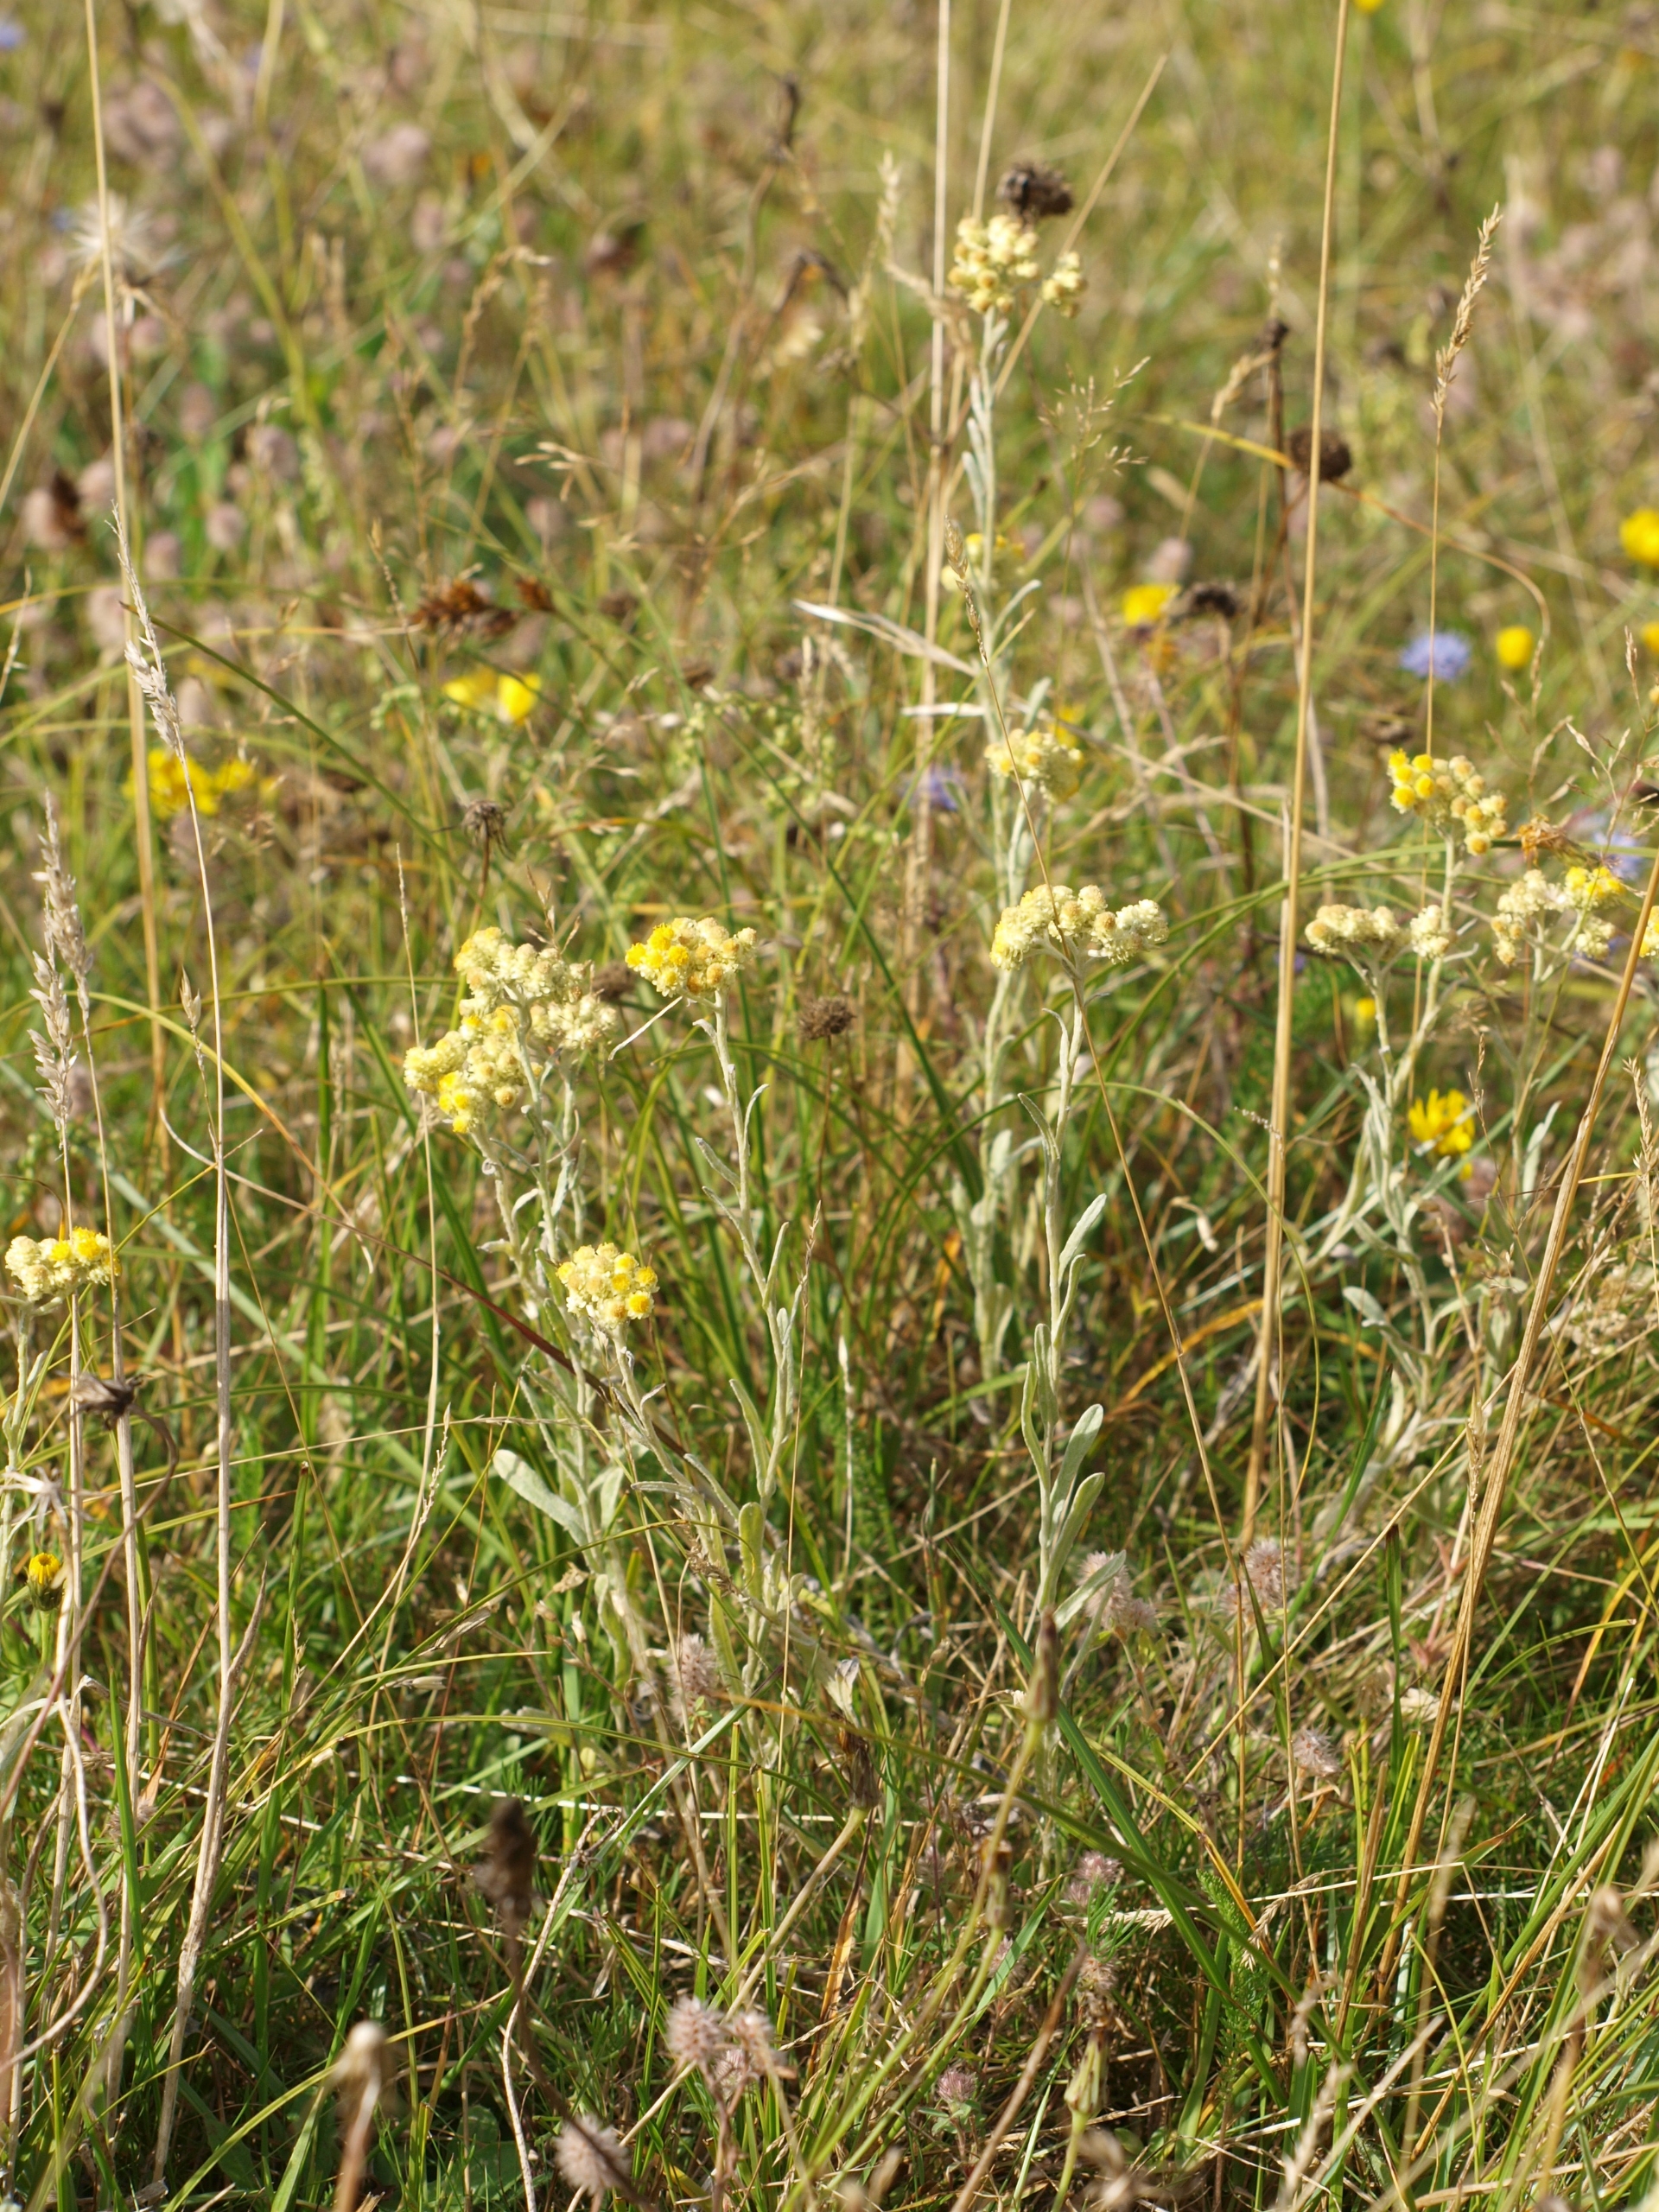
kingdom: Plantae
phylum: Tracheophyta
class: Magnoliopsida
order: Asterales
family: Asteraceae
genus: Helichrysum
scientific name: Helichrysum arenarium
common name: Gul evighedsblomst
